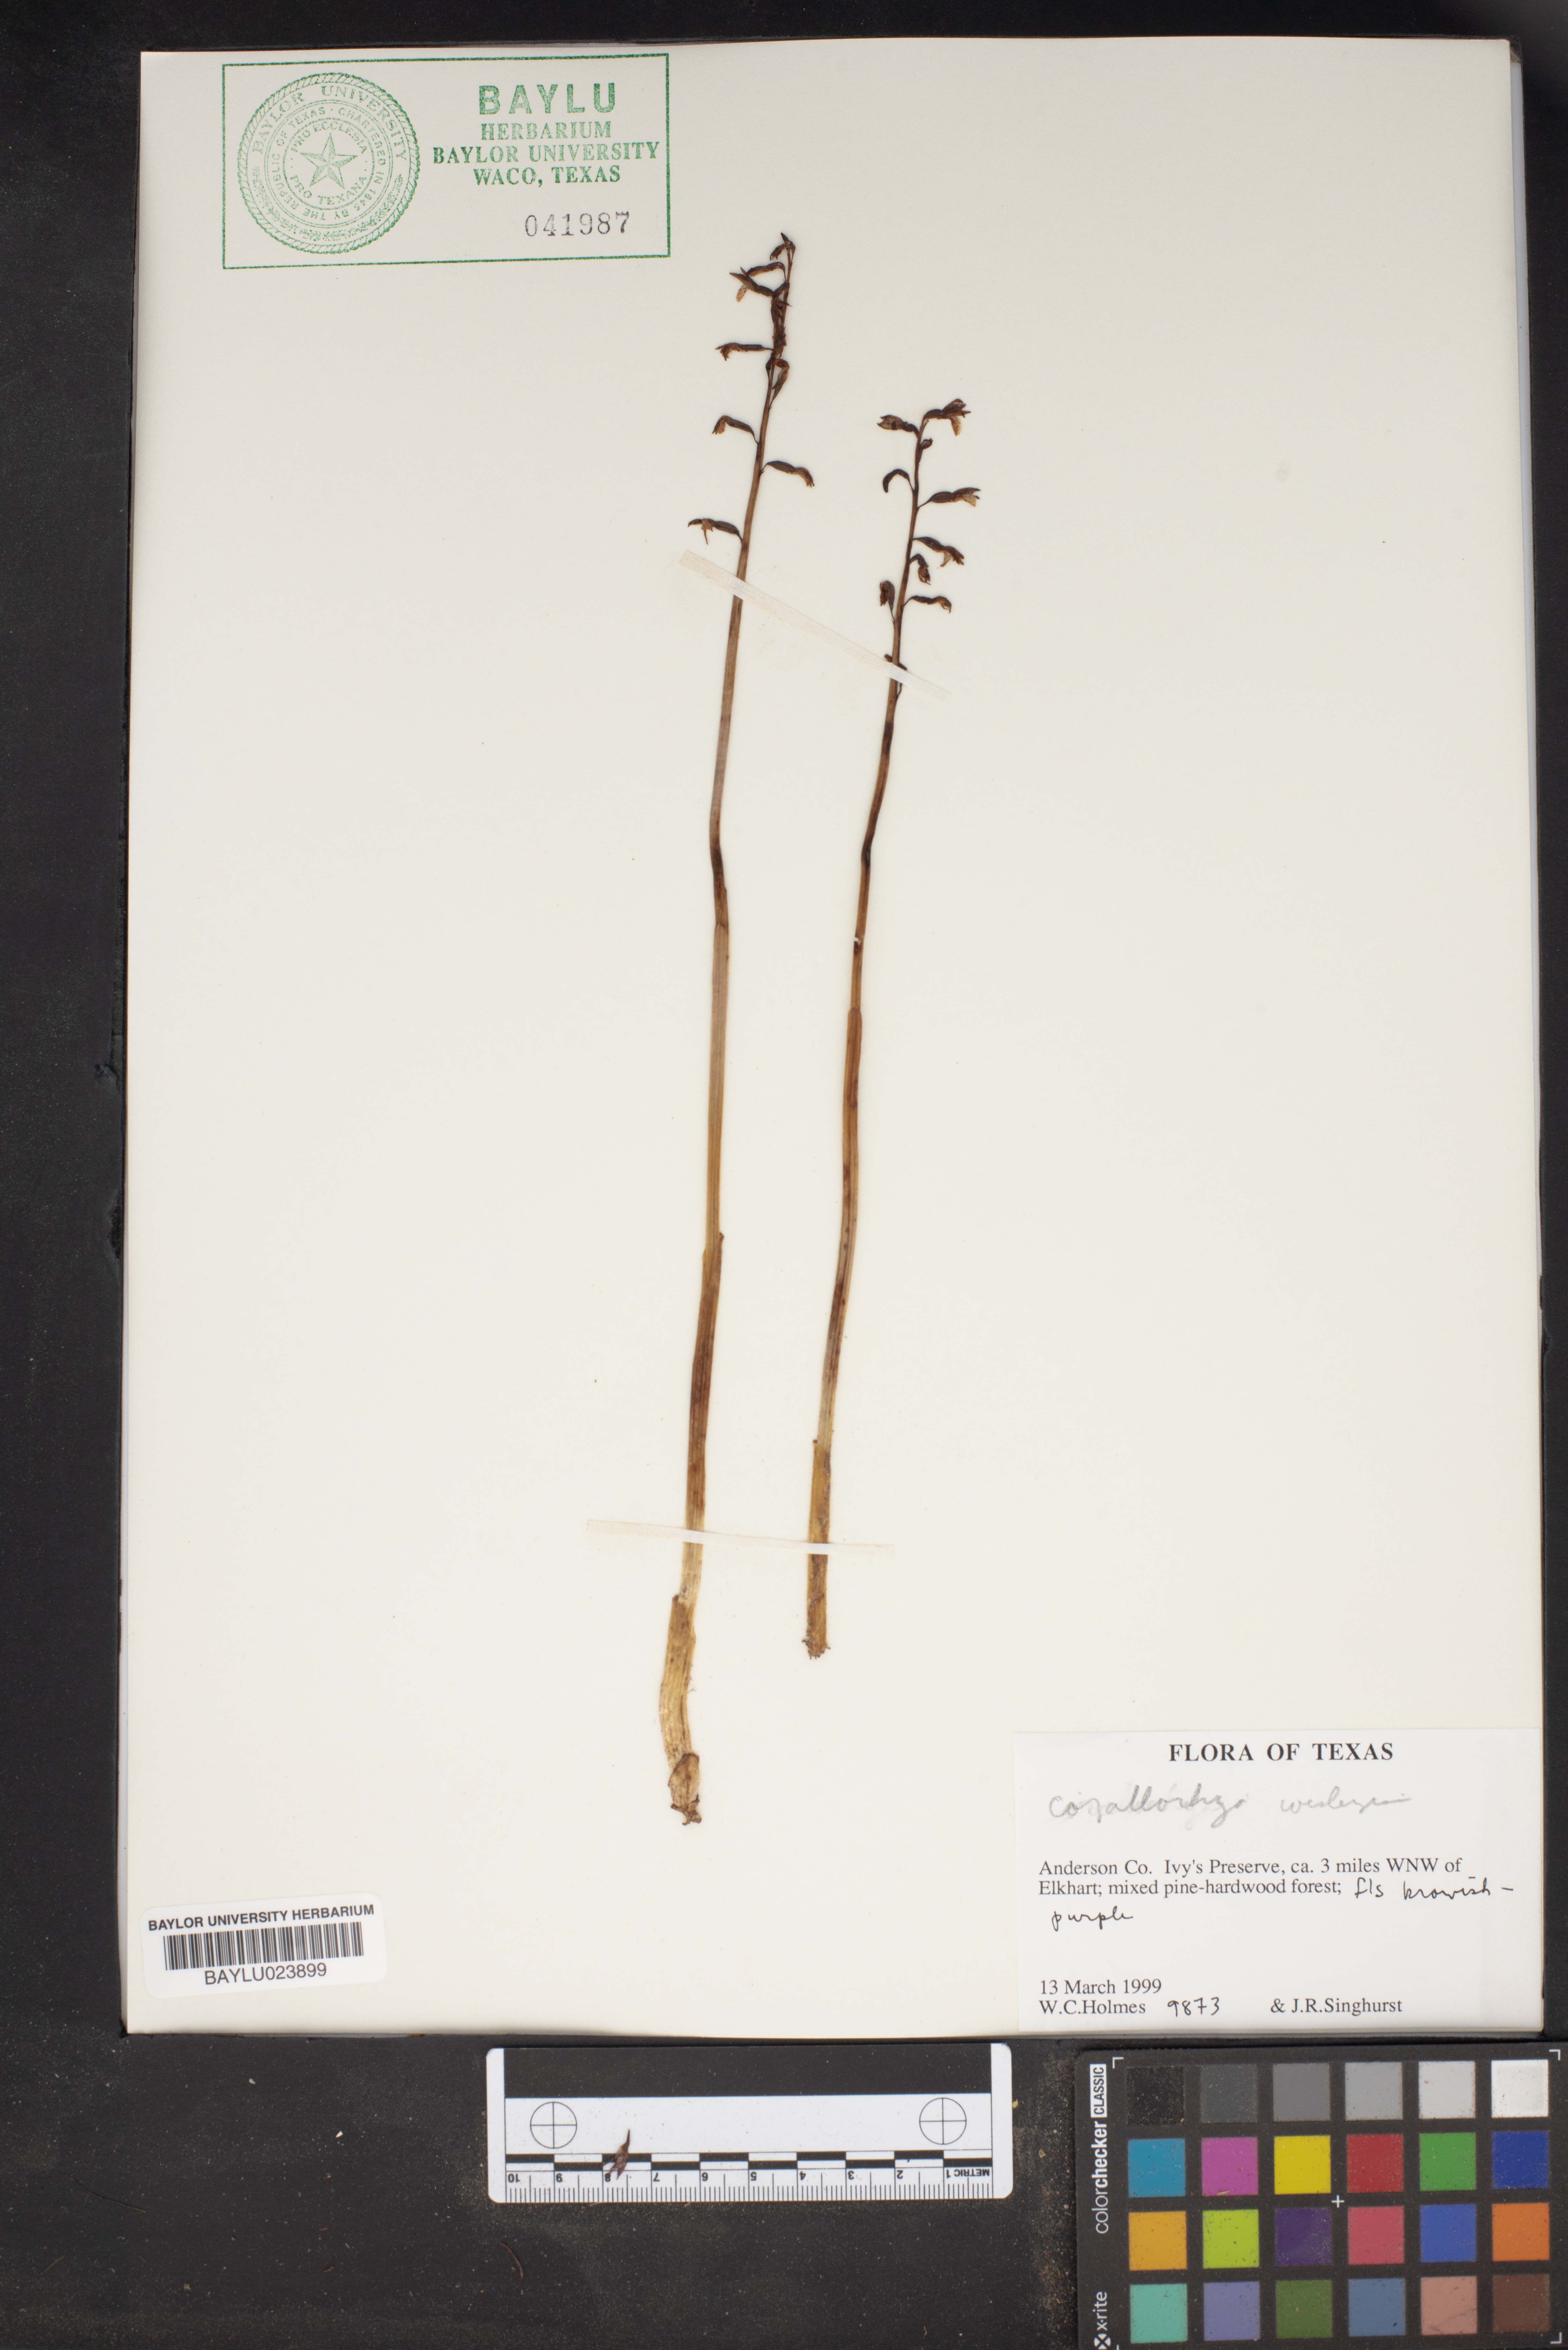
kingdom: Plantae
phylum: Tracheophyta
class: Liliopsida
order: Asparagales
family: Orchidaceae
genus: Corallorhiza
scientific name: Corallorhiza
